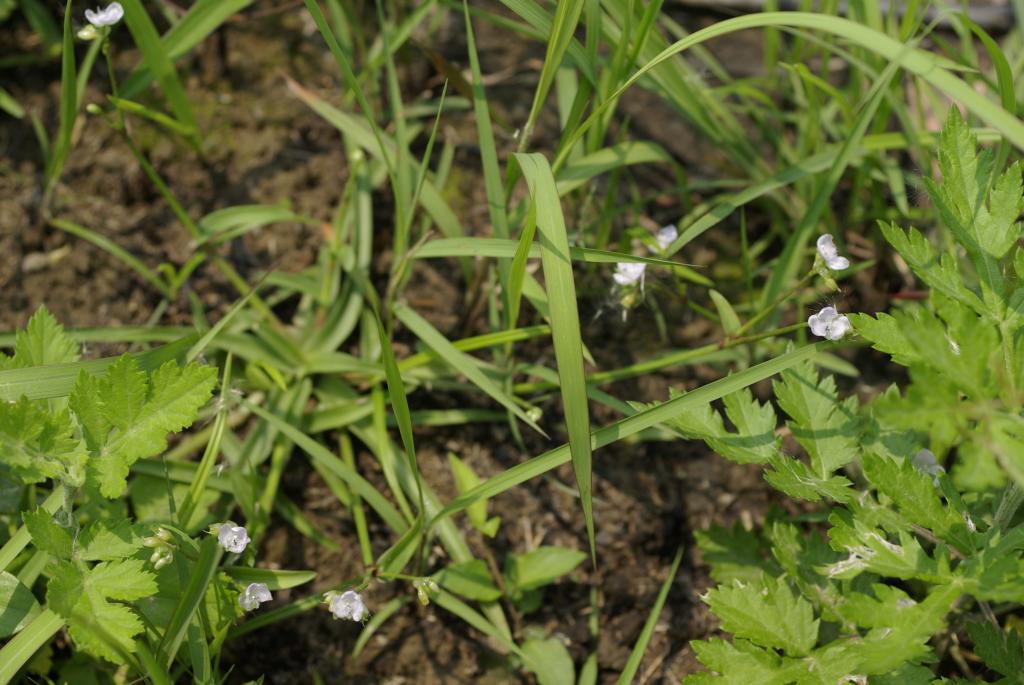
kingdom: Plantae
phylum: Tracheophyta
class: Liliopsida
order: Commelinales
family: Commelinaceae
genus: Murdannia
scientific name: Murdannia loriformis
